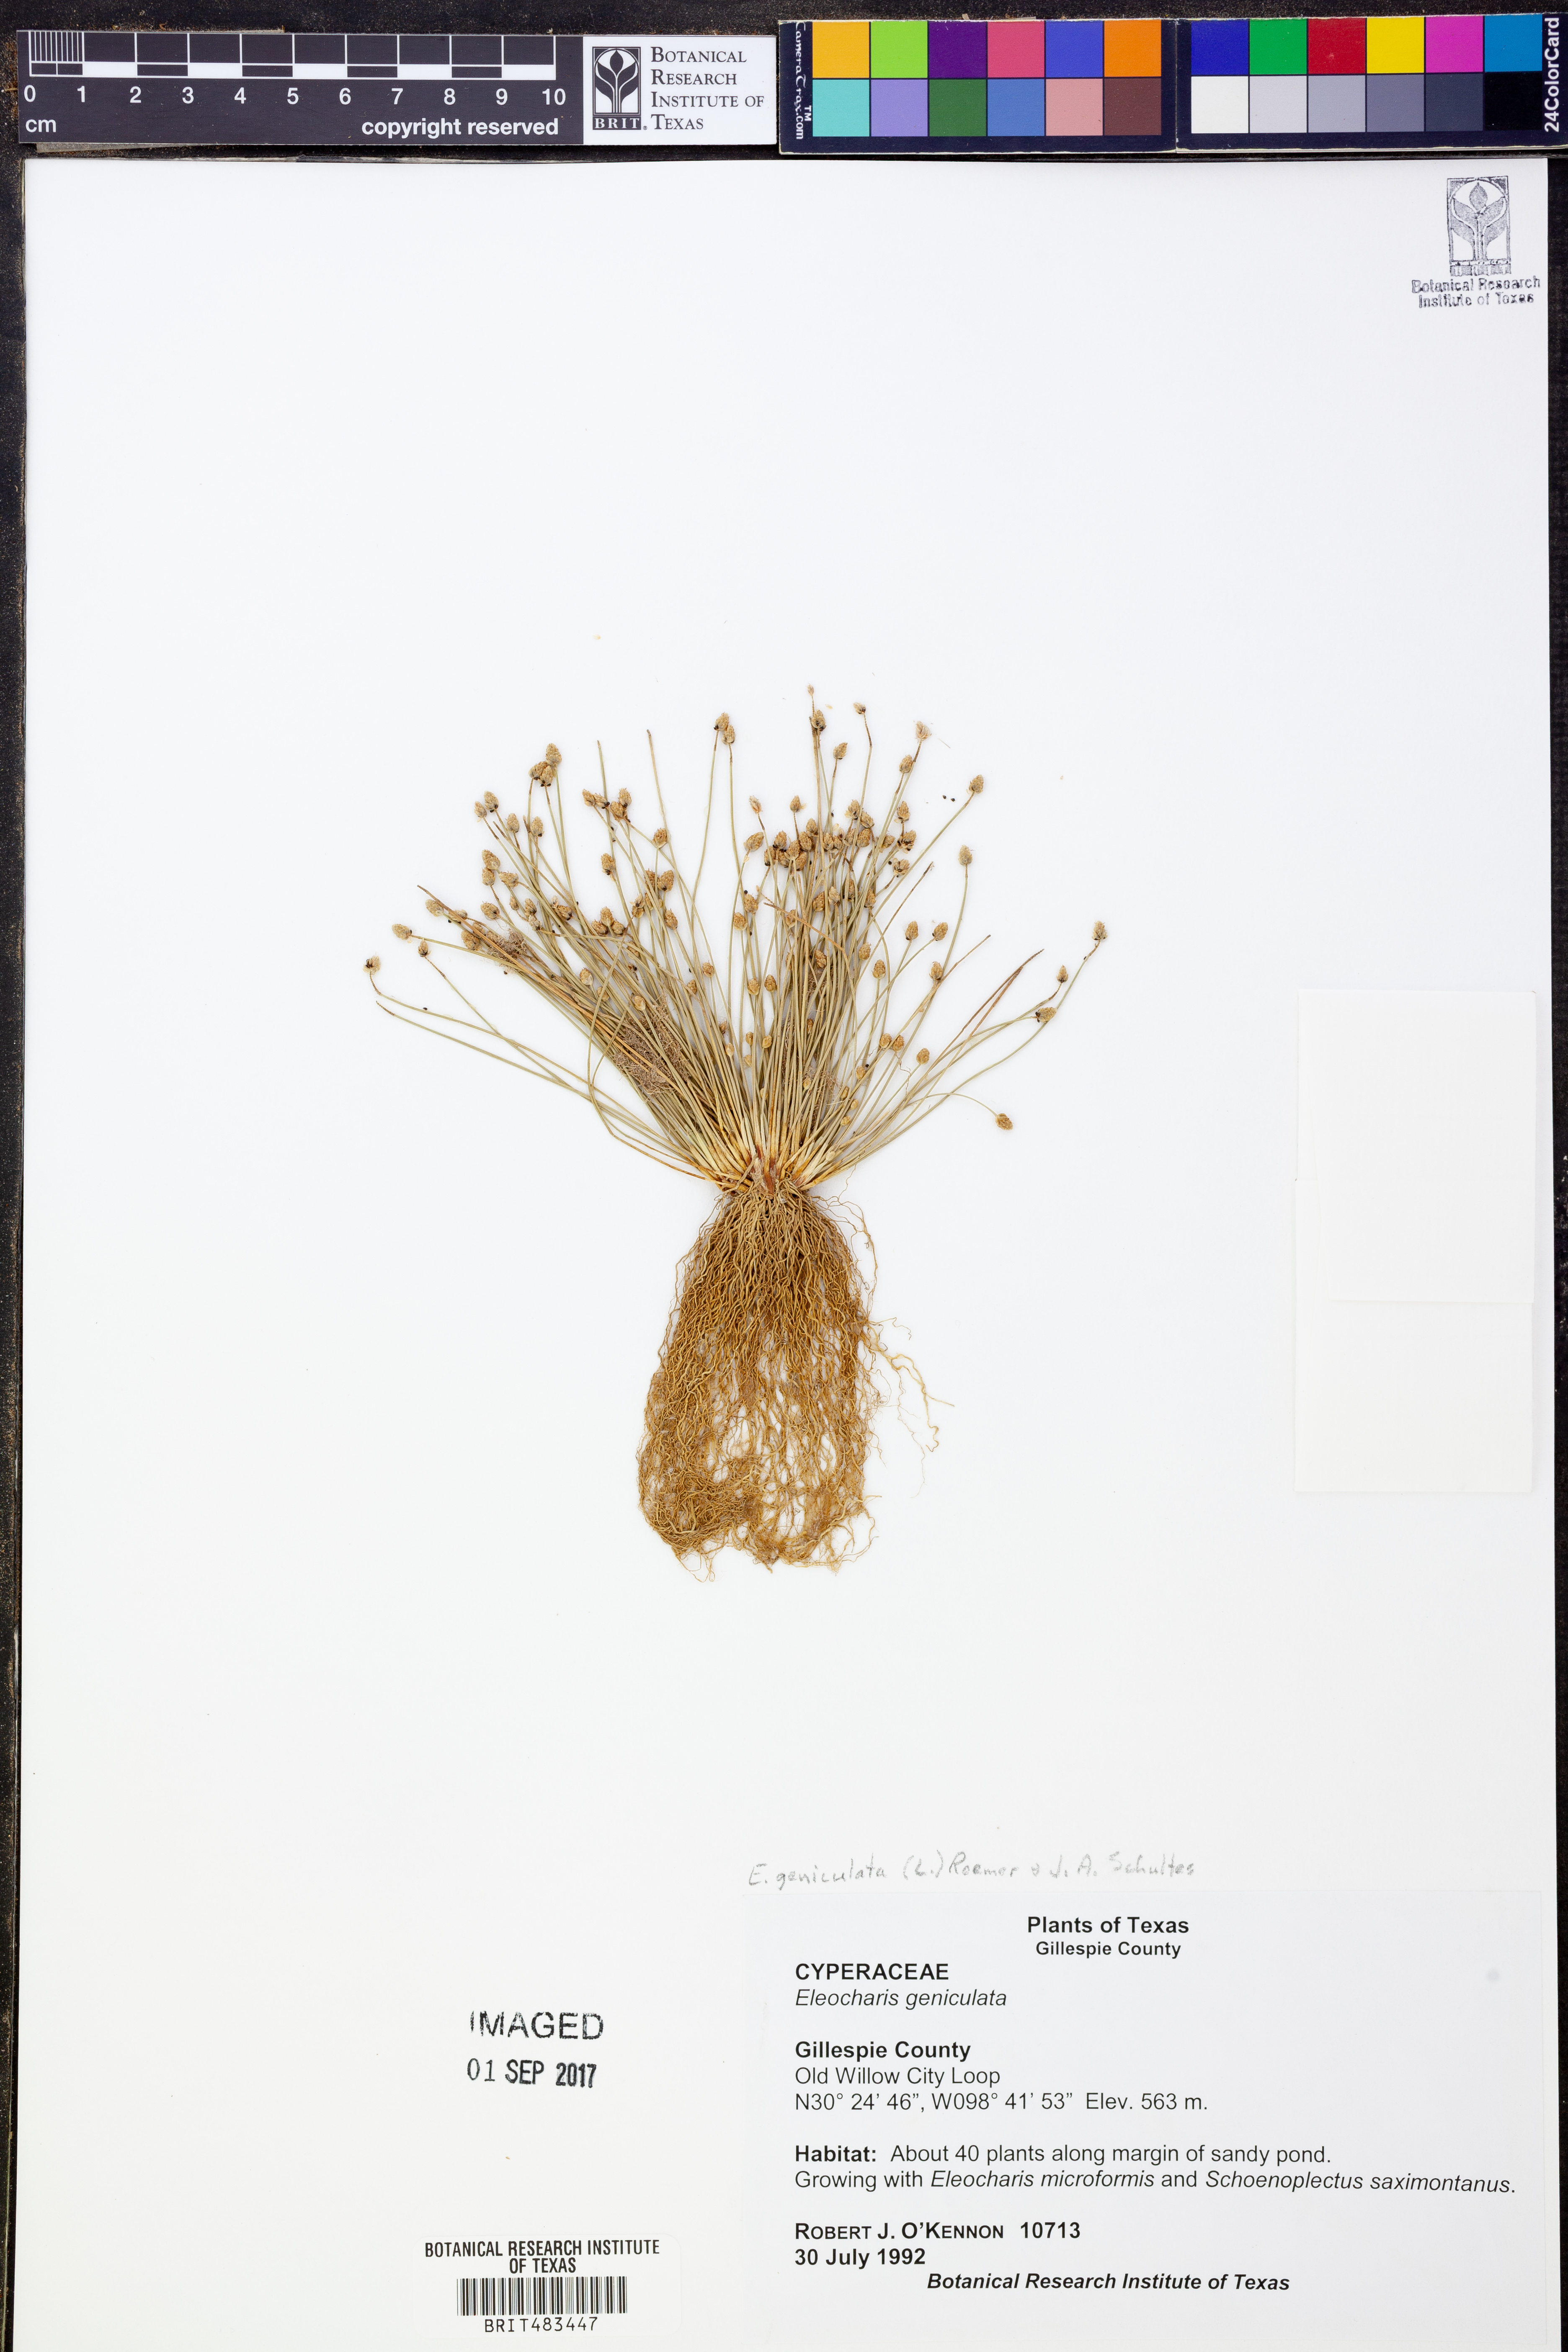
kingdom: Plantae
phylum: Tracheophyta
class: Liliopsida
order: Poales
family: Cyperaceae
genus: Eleocharis
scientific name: Eleocharis geniculata
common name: Canada spikesedge
